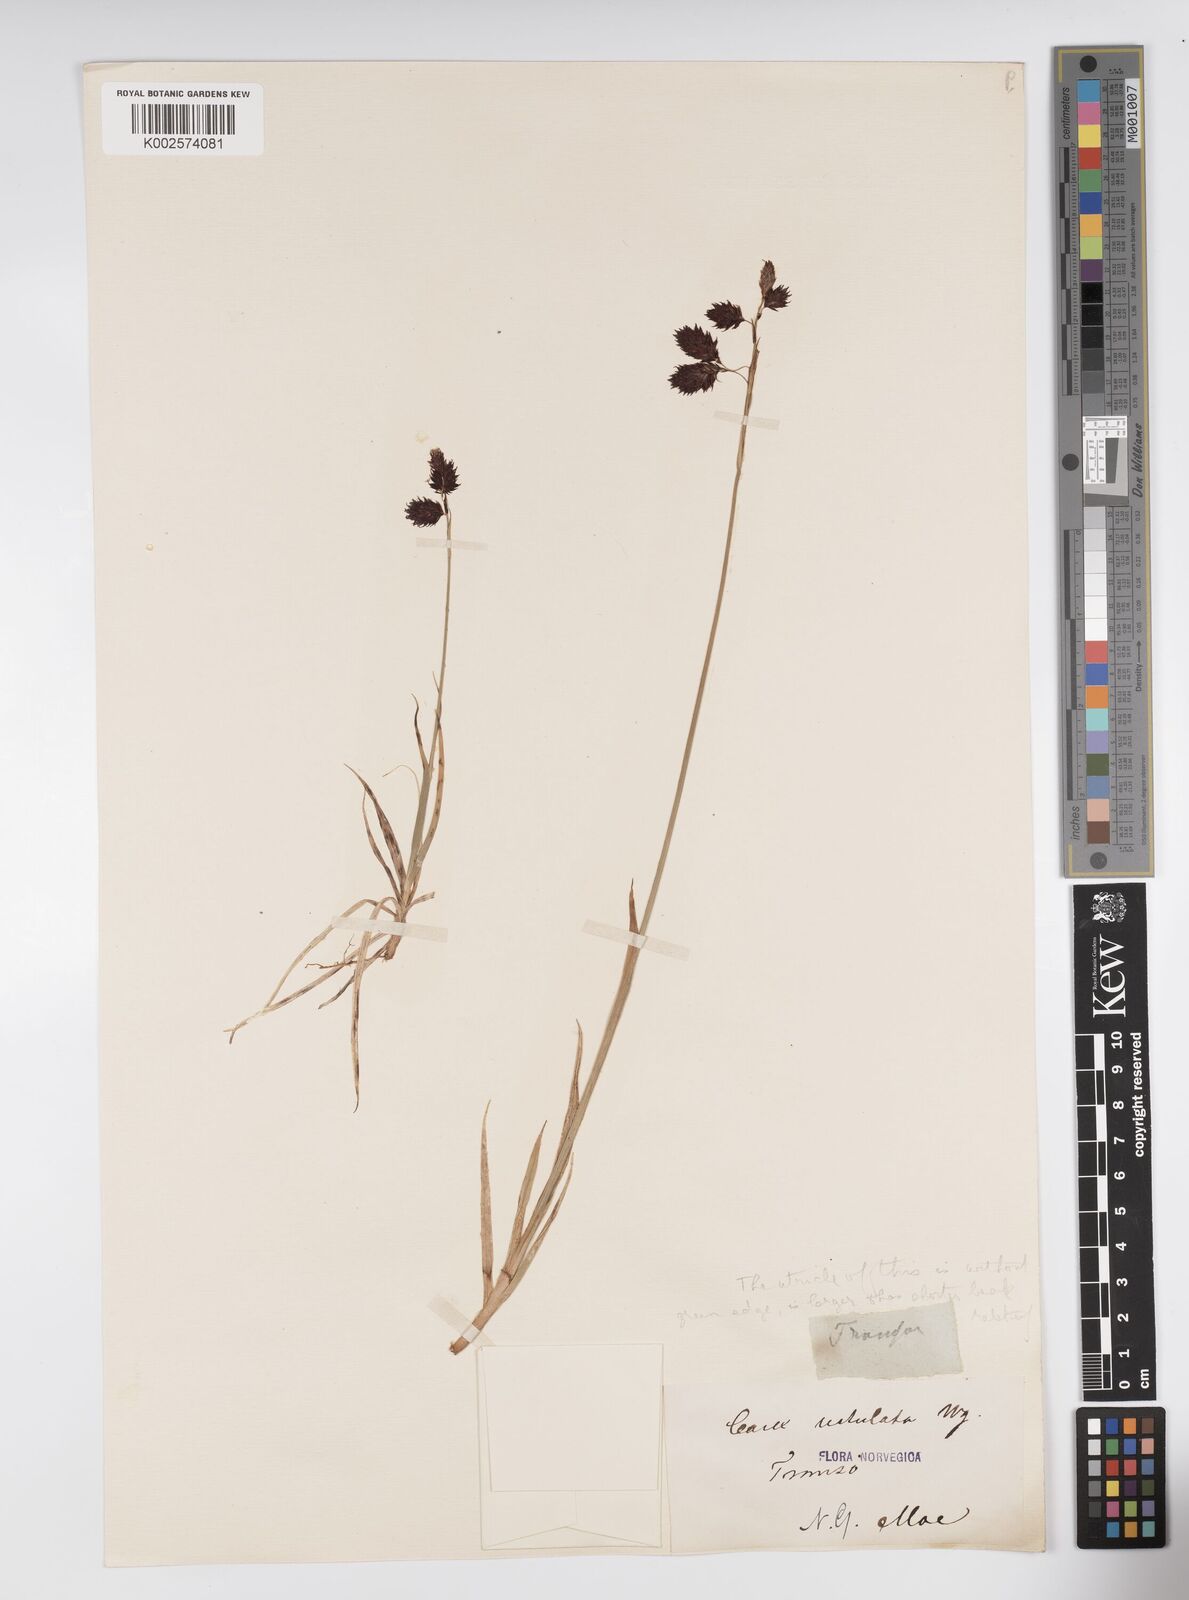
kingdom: Plantae
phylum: Tracheophyta
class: Liliopsida
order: Poales
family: Cyperaceae
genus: Carex
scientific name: Carex atrofusca
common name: Scorched alpine-sedge
